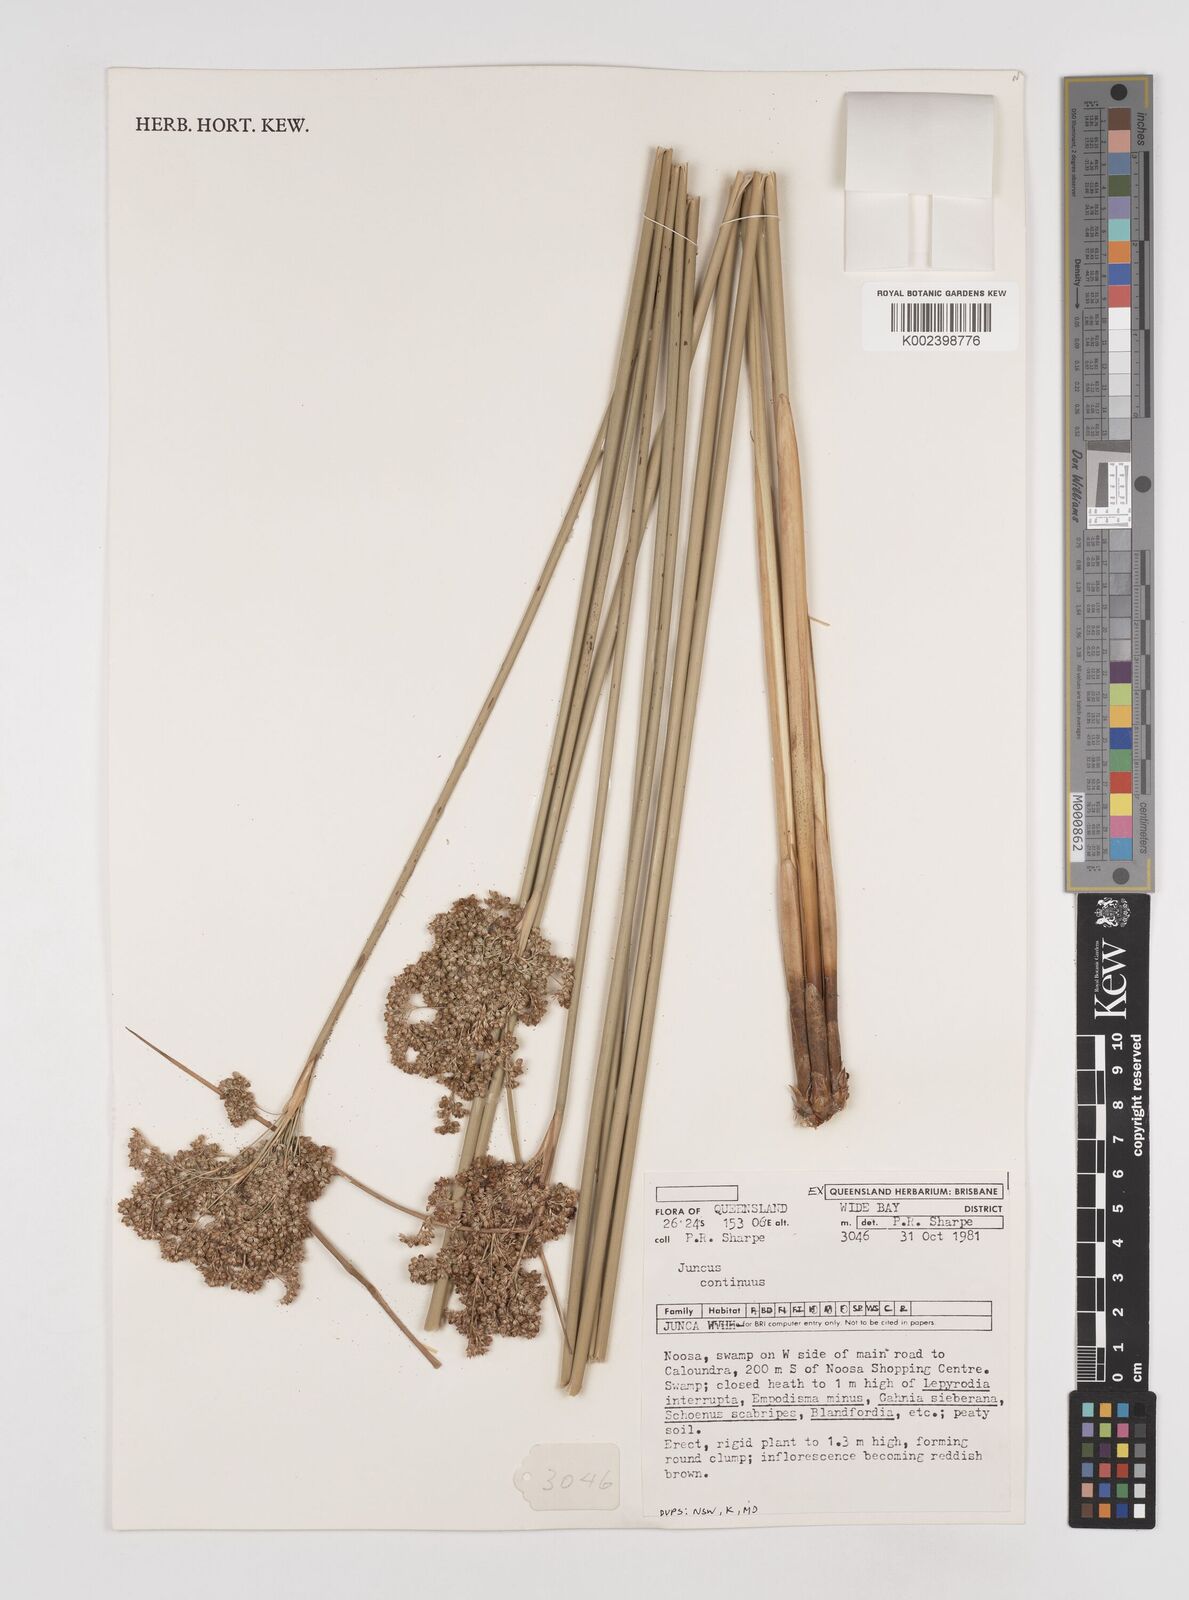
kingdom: Plantae
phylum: Tracheophyta
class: Liliopsida
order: Poales
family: Juncaceae
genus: Juncus
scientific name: Juncus continuus
